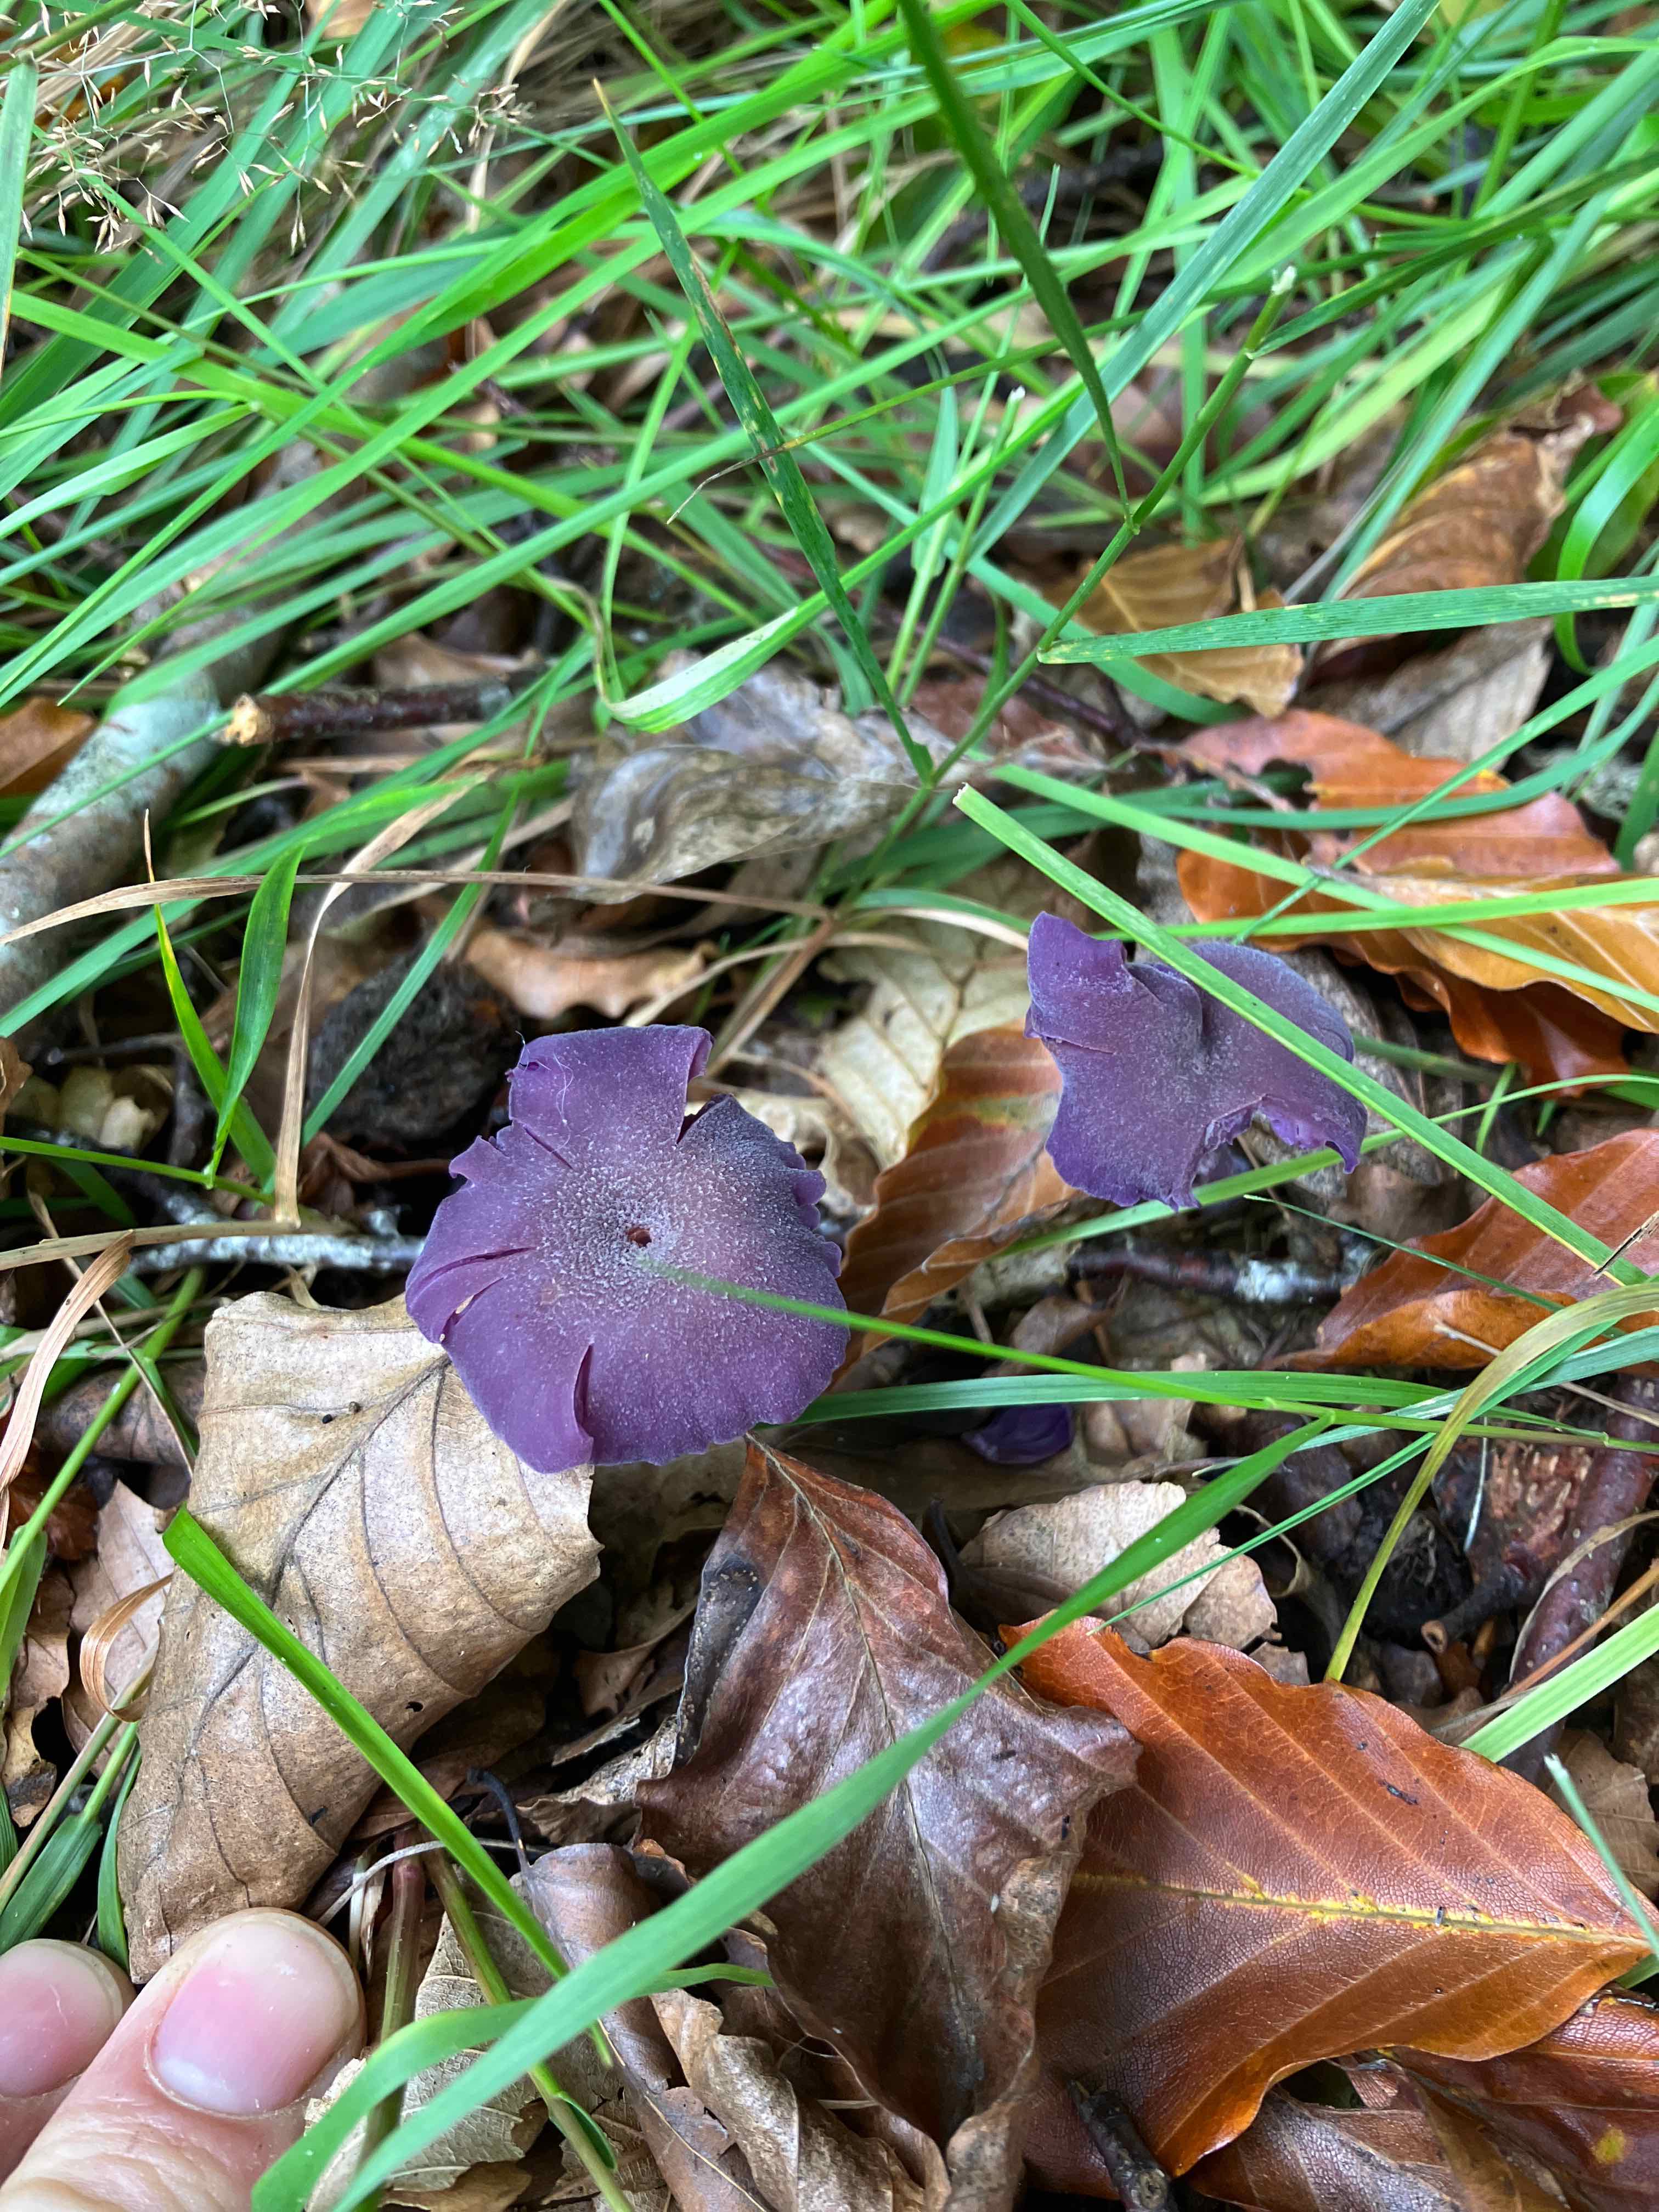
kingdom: Fungi
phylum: Basidiomycota
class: Agaricomycetes
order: Agaricales
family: Hydnangiaceae
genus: Laccaria
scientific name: Laccaria amethystina
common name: violet ametysthat
